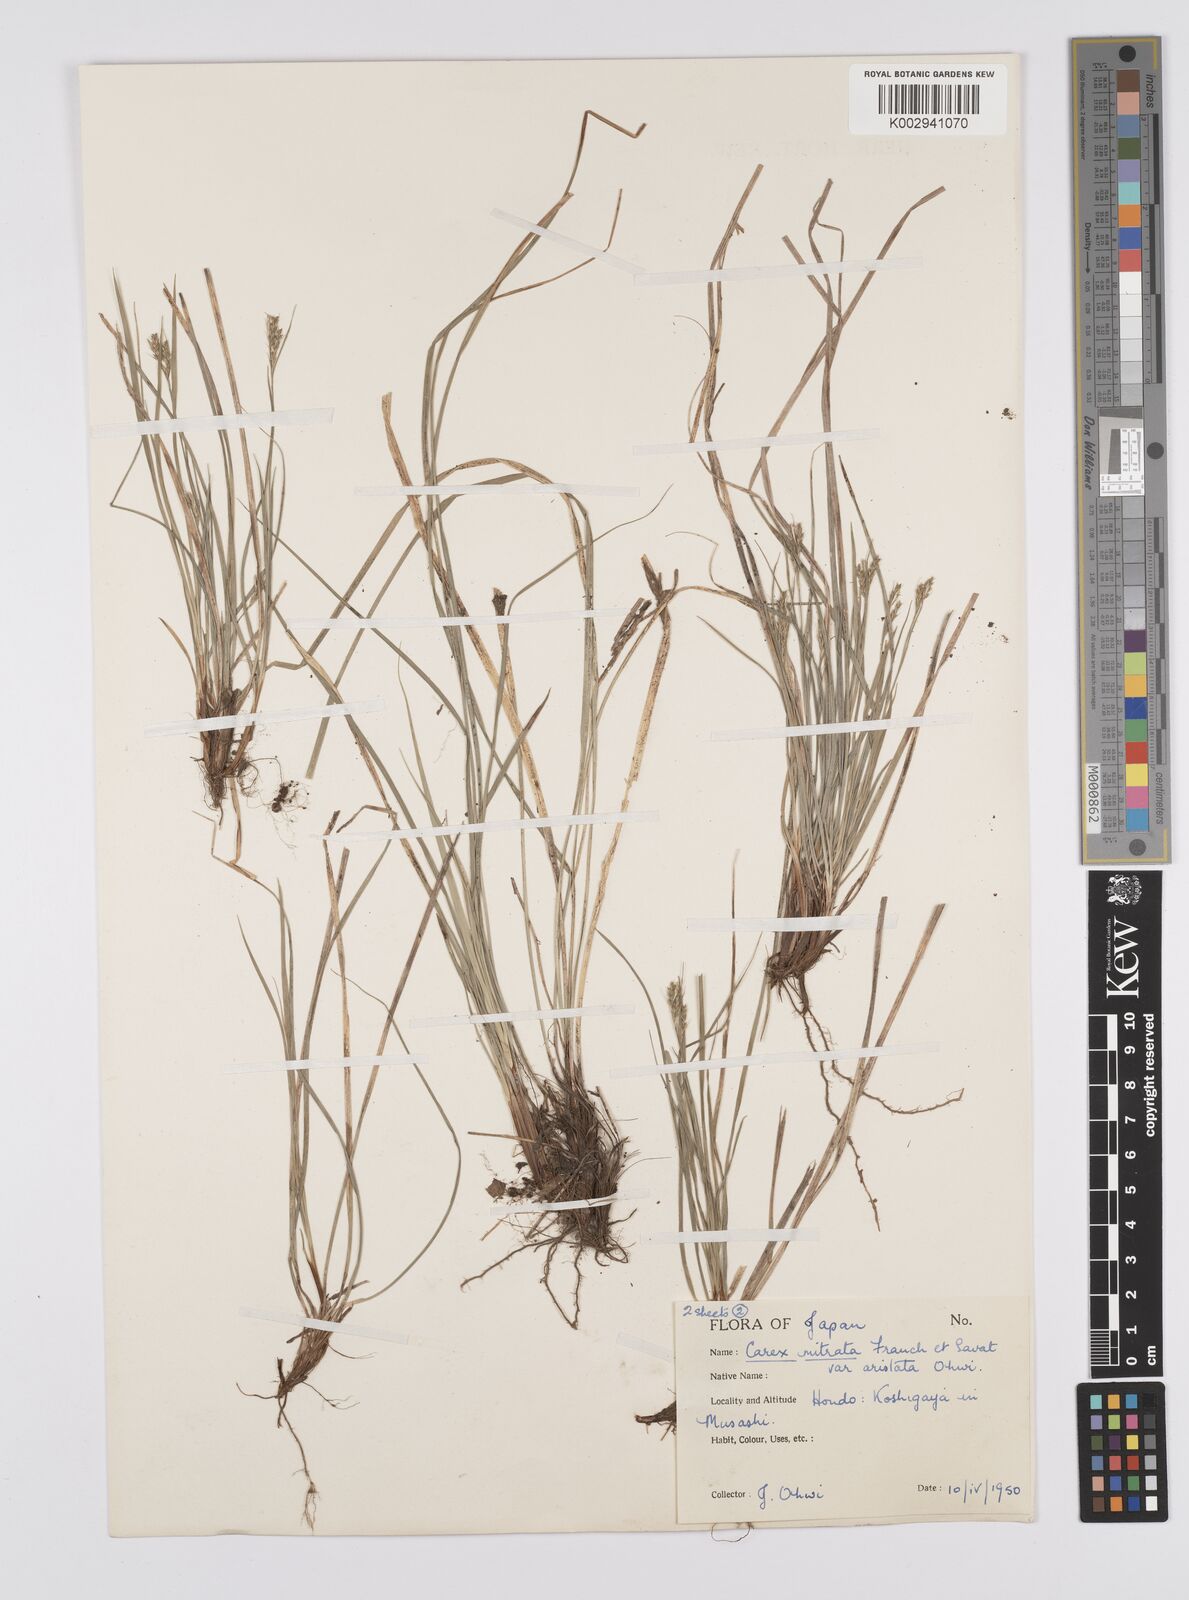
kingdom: Plantae
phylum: Tracheophyta
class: Liliopsida
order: Poales
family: Cyperaceae
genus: Carex
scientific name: Carex mitrata
